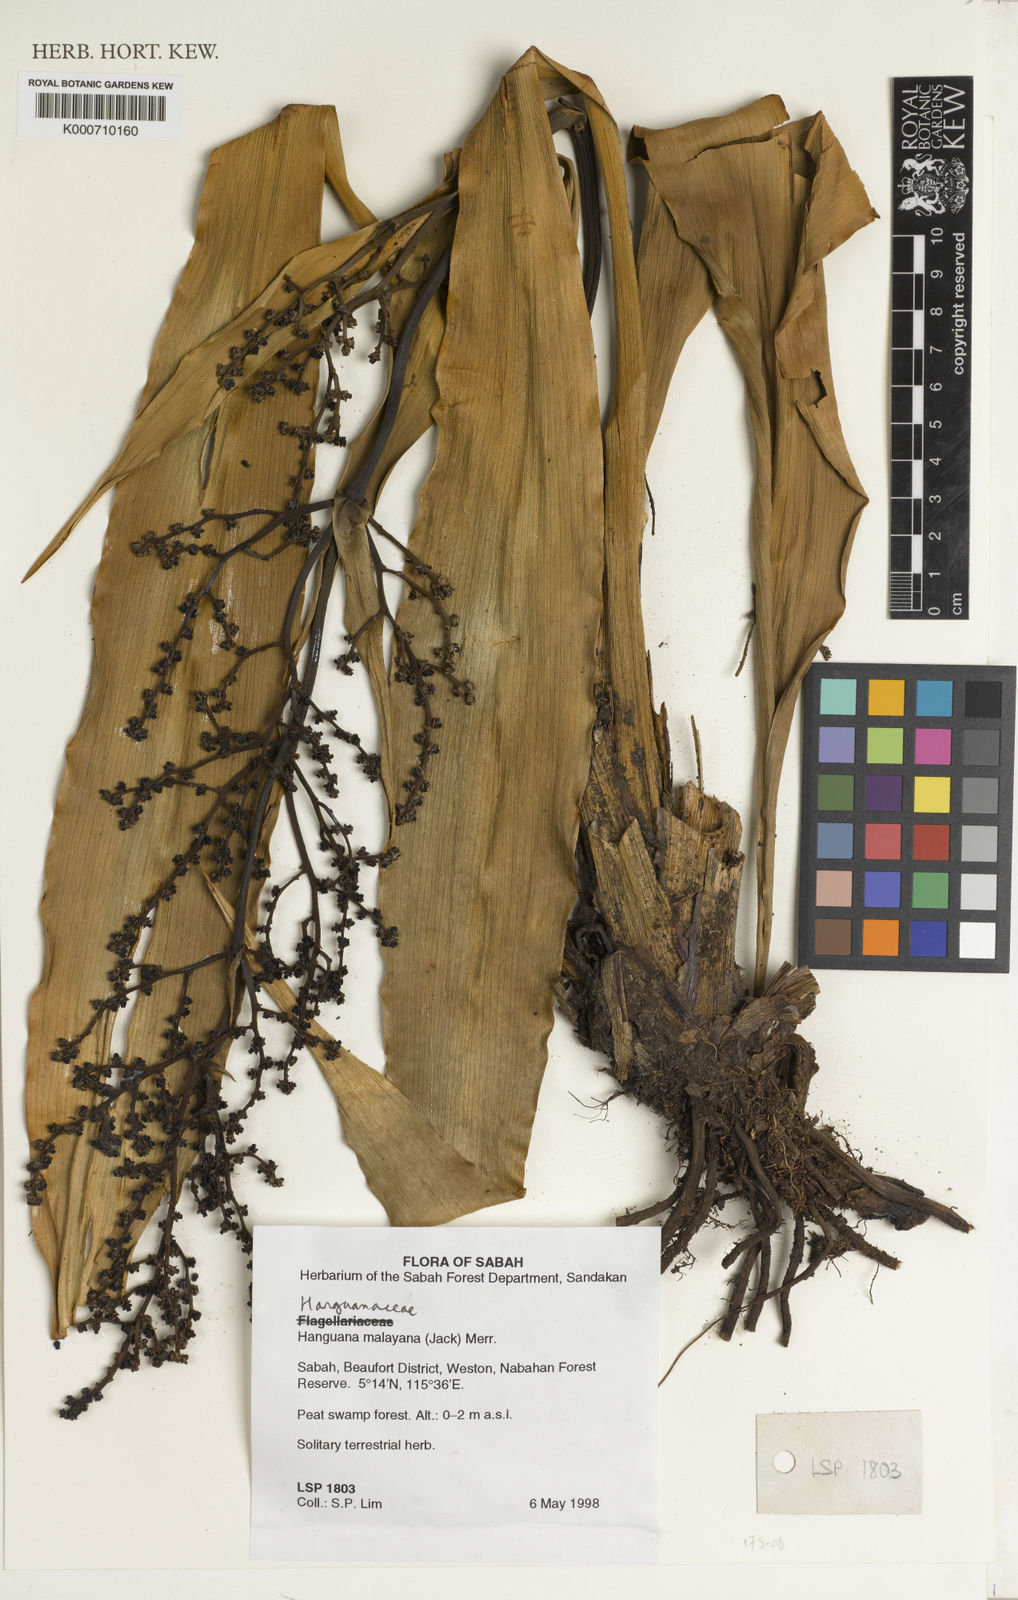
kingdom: Plantae
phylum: Tracheophyta
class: Liliopsida
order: Commelinales
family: Hanguanaceae
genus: Hanguana
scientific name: Hanguana malayana
